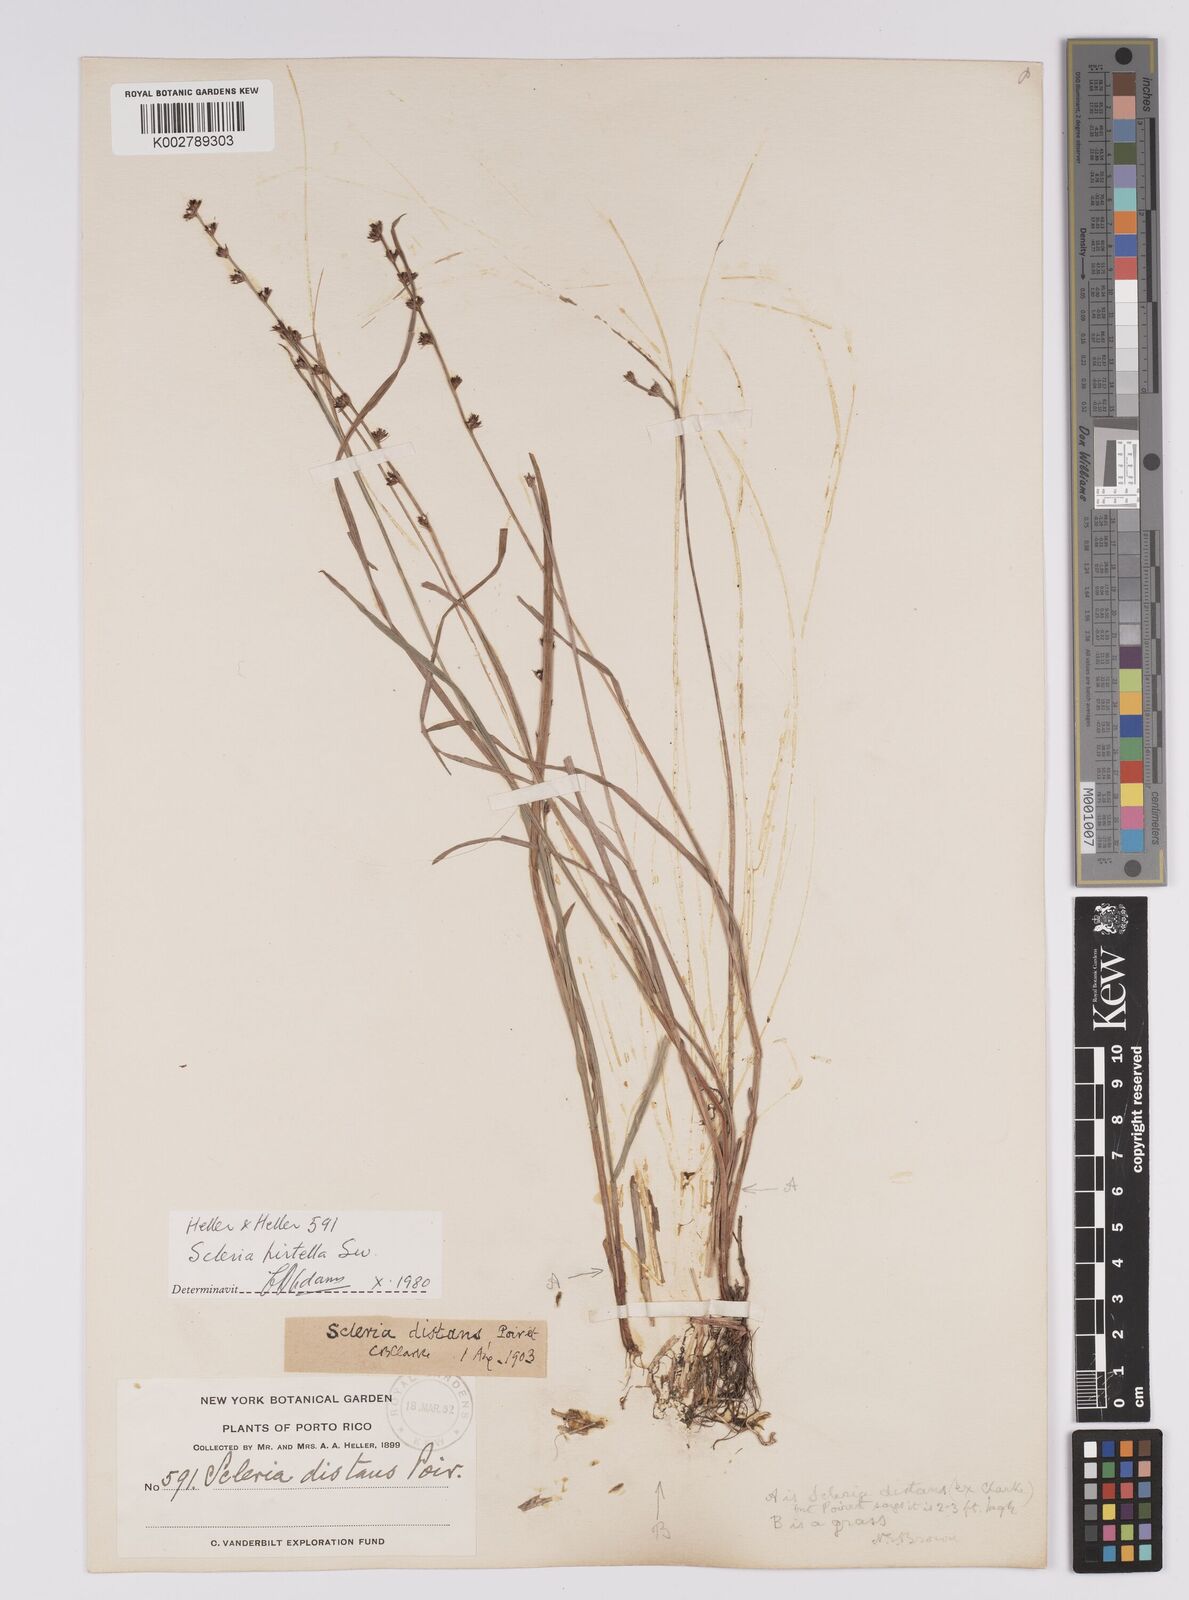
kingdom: Plantae
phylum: Tracheophyta
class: Liliopsida
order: Poales
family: Cyperaceae
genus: Scleria
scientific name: Scleria hirtella
